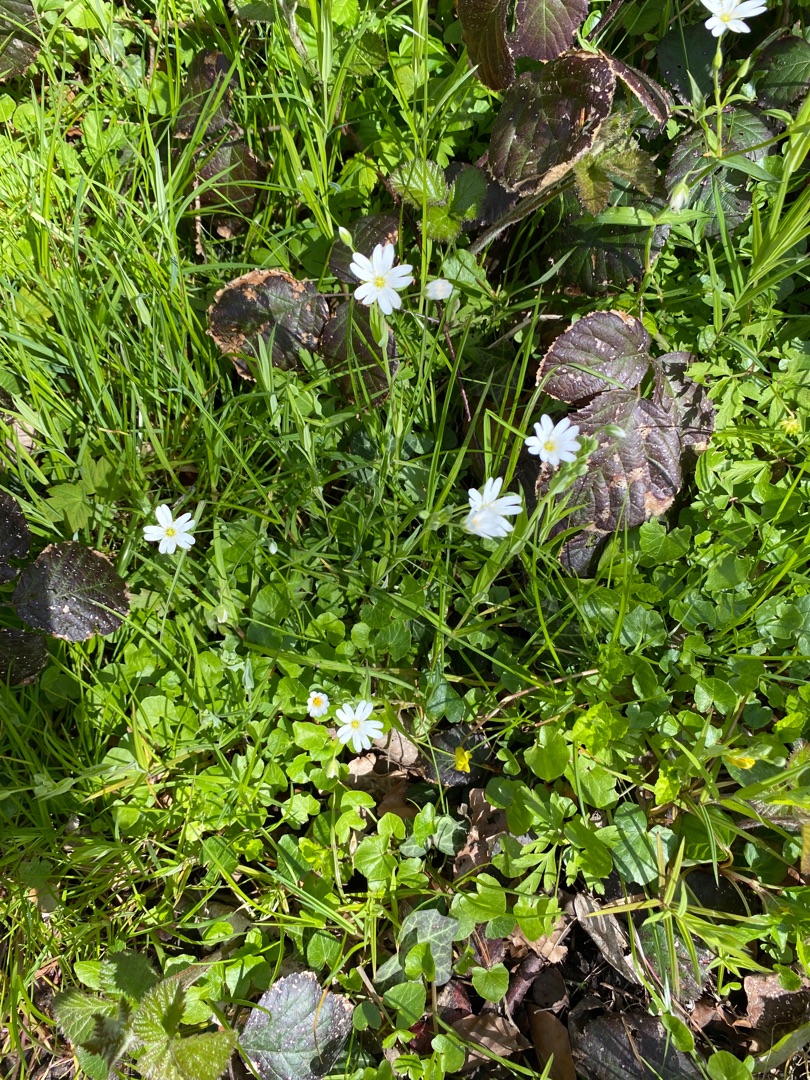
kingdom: Plantae
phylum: Tracheophyta
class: Magnoliopsida
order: Caryophyllales
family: Caryophyllaceae
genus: Rabelera
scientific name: Rabelera holostea
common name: Stor fladstjerne
